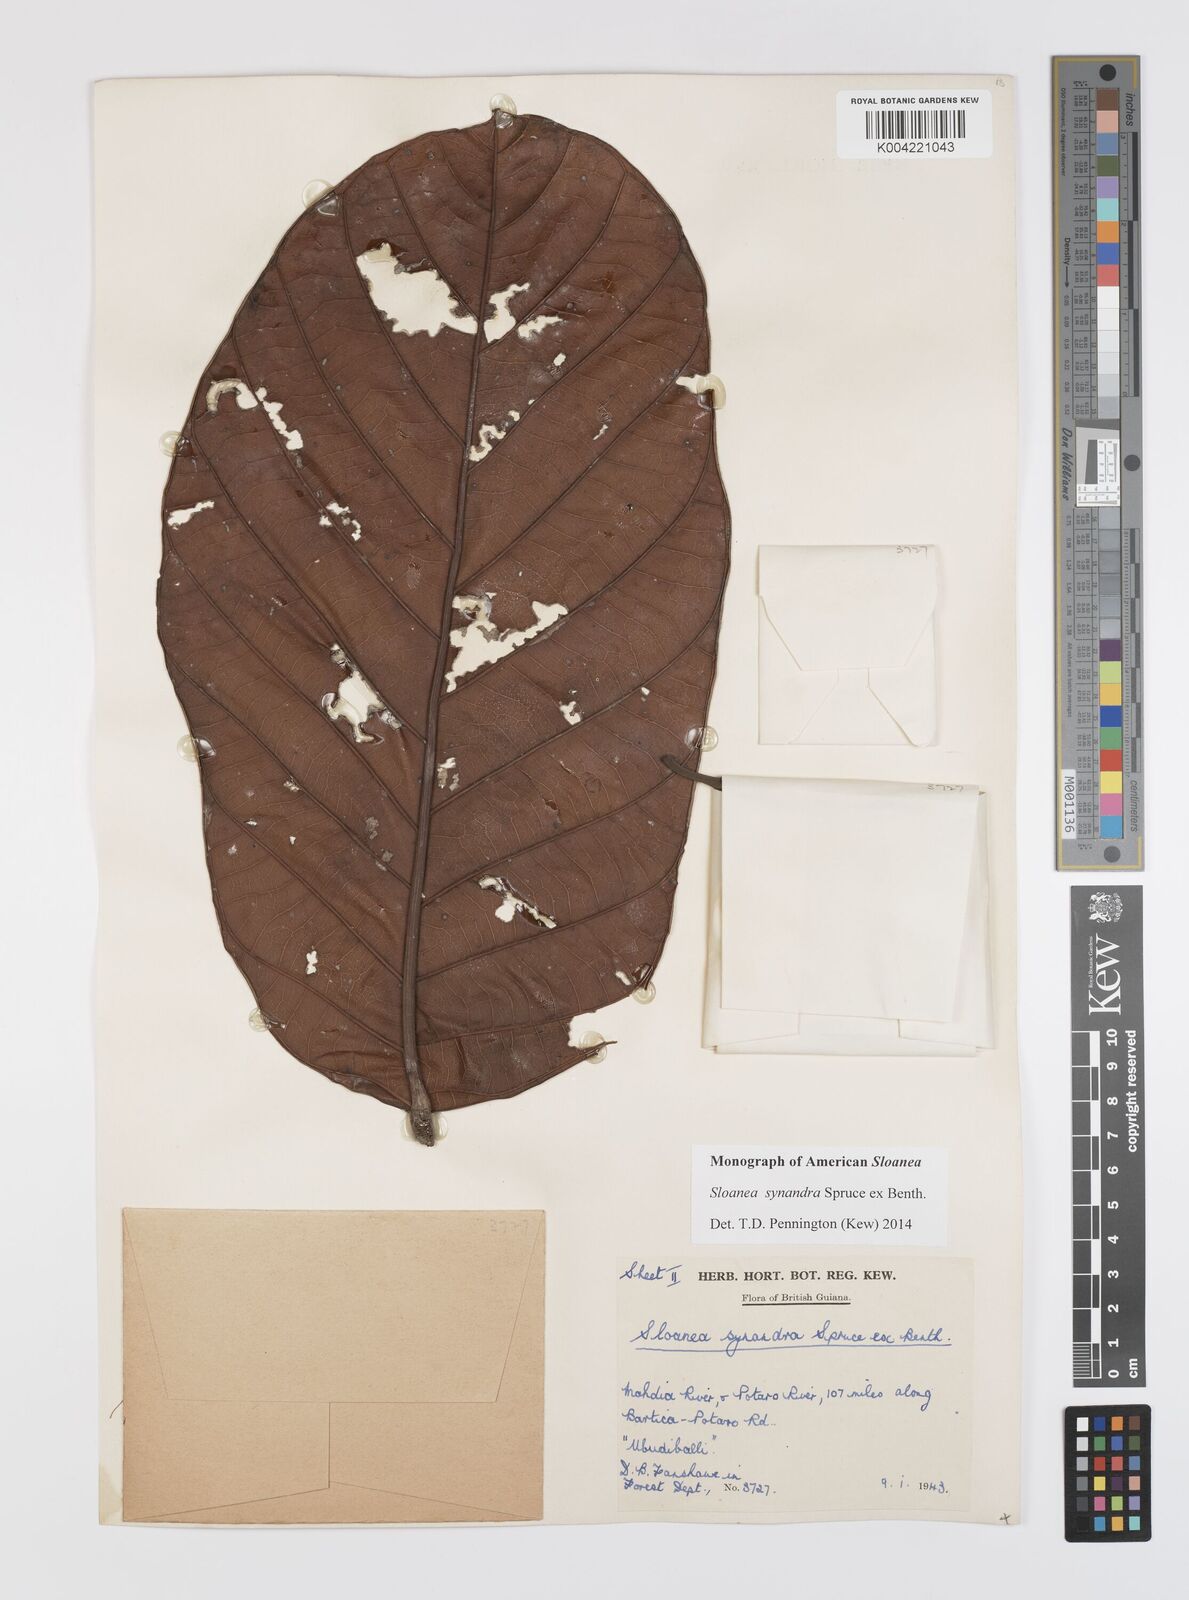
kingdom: Plantae
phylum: Tracheophyta
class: Magnoliopsida
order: Oxalidales
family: Elaeocarpaceae
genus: Sloanea
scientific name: Sloanea synandra
